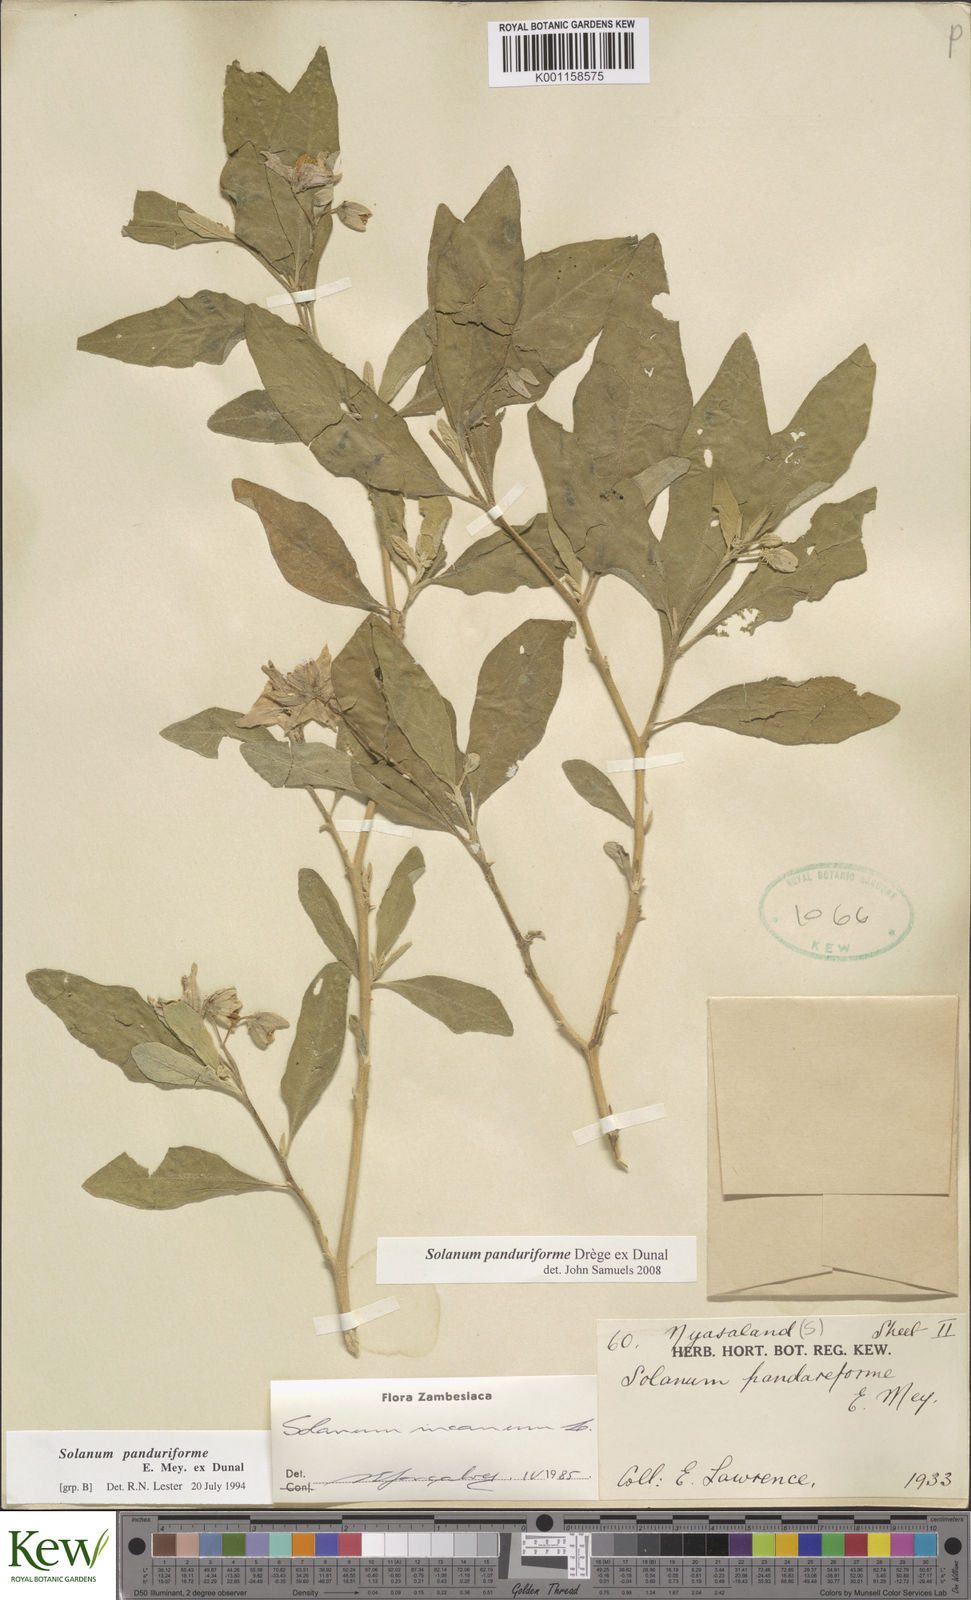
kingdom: Plantae
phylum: Tracheophyta
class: Magnoliopsida
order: Solanales
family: Solanaceae
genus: Solanum
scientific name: Solanum campylacanthum
